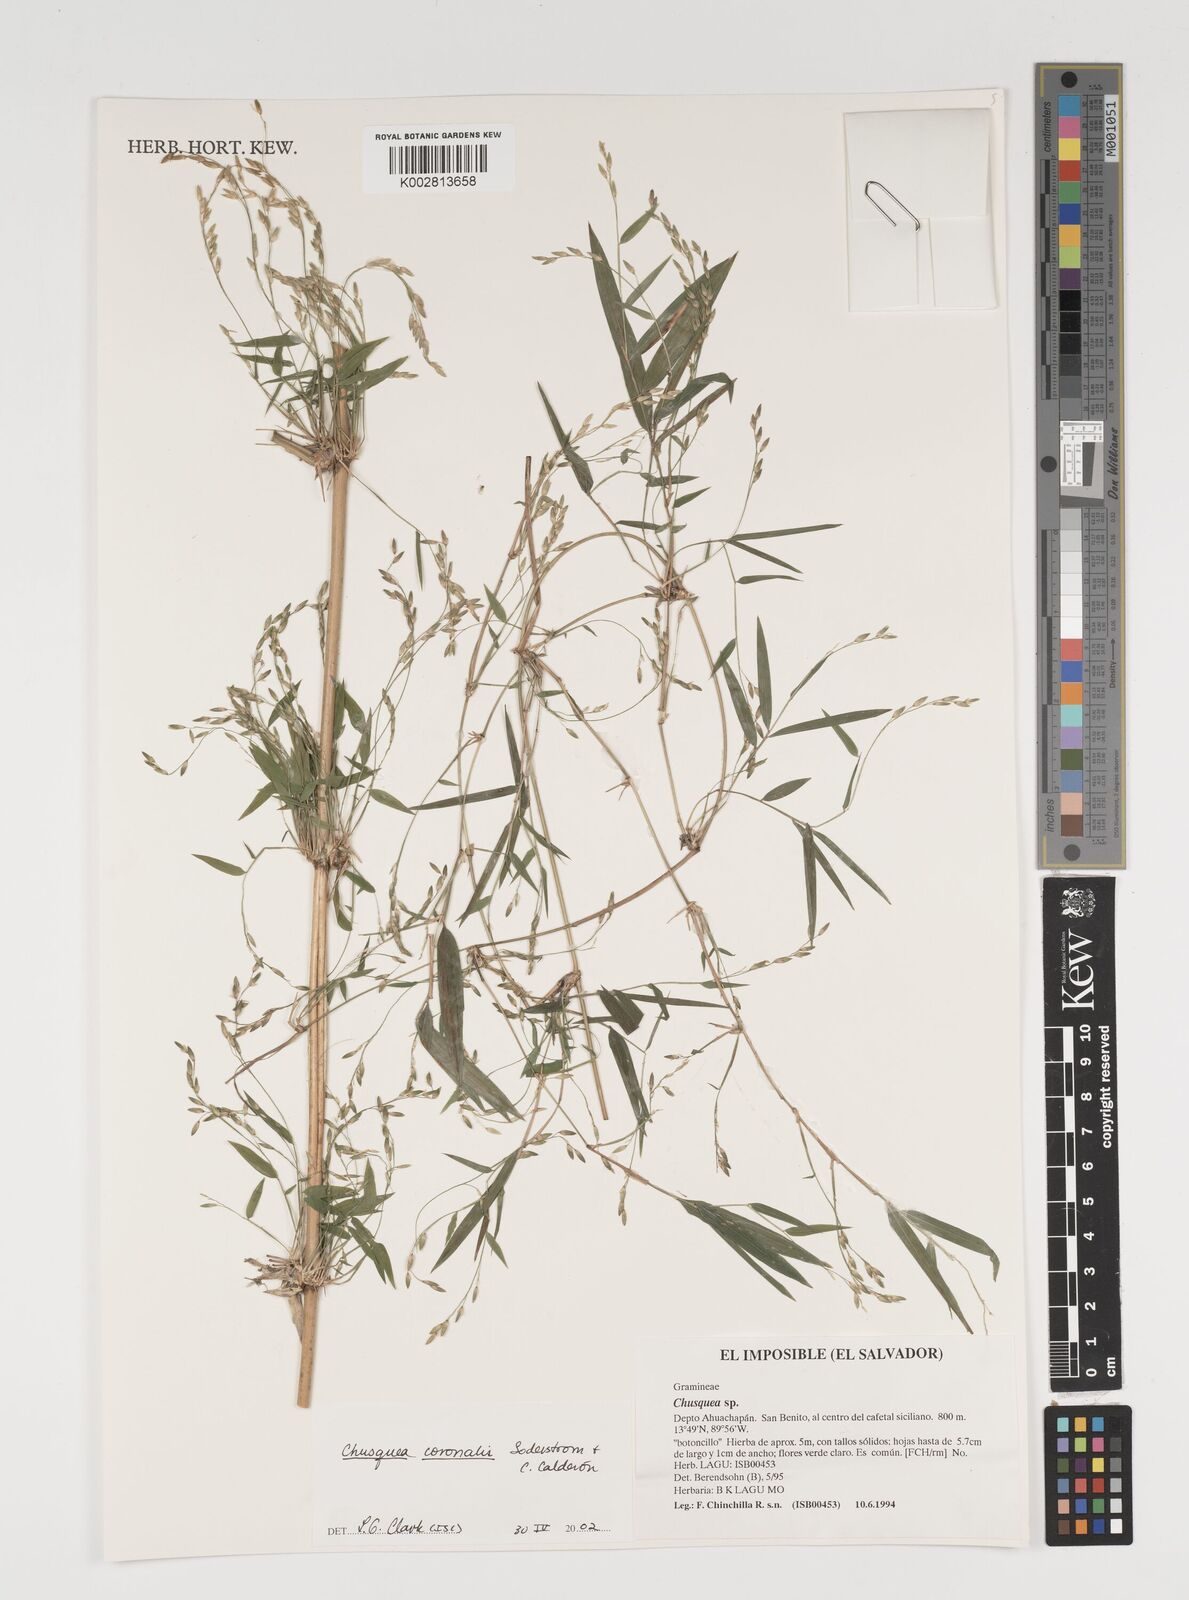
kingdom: Plantae
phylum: Tracheophyta
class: Liliopsida
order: Poales
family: Poaceae
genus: Chusquea
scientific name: Chusquea coronalis
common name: Machris bamboo
